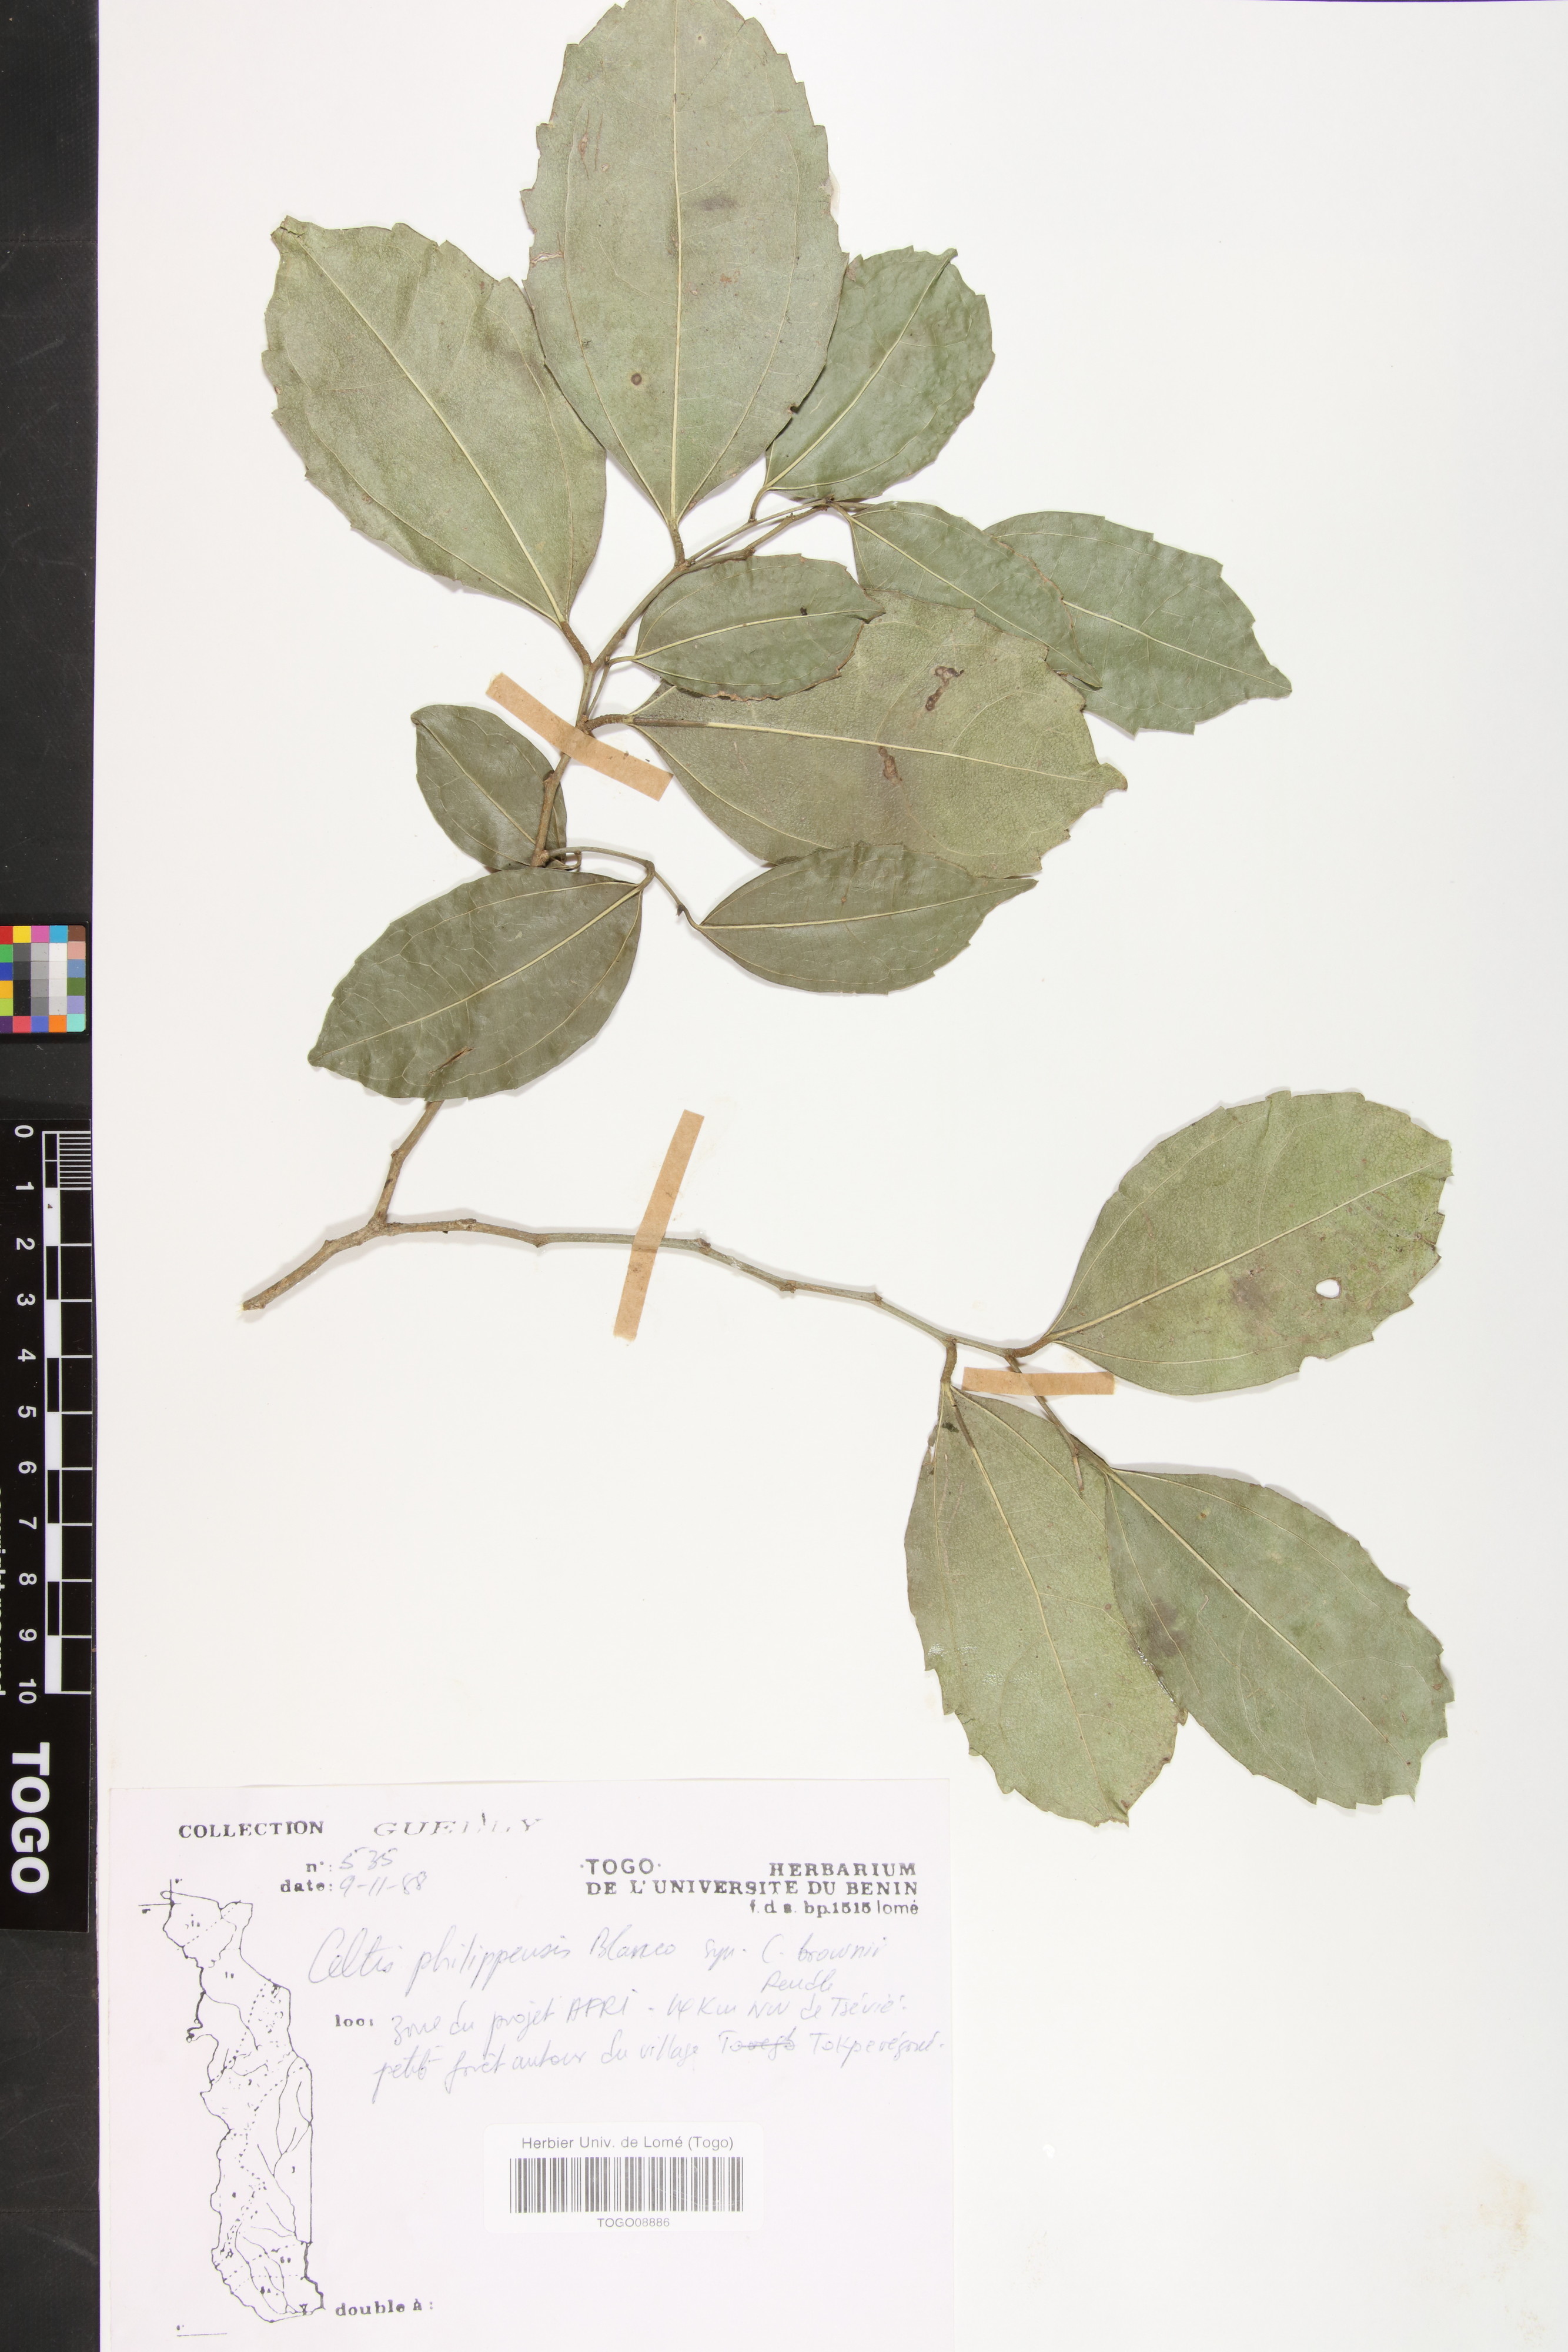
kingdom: Plantae
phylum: Tracheophyta
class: Magnoliopsida
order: Rosales
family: Cannabaceae
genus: Celtis
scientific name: Celtis philippensis
